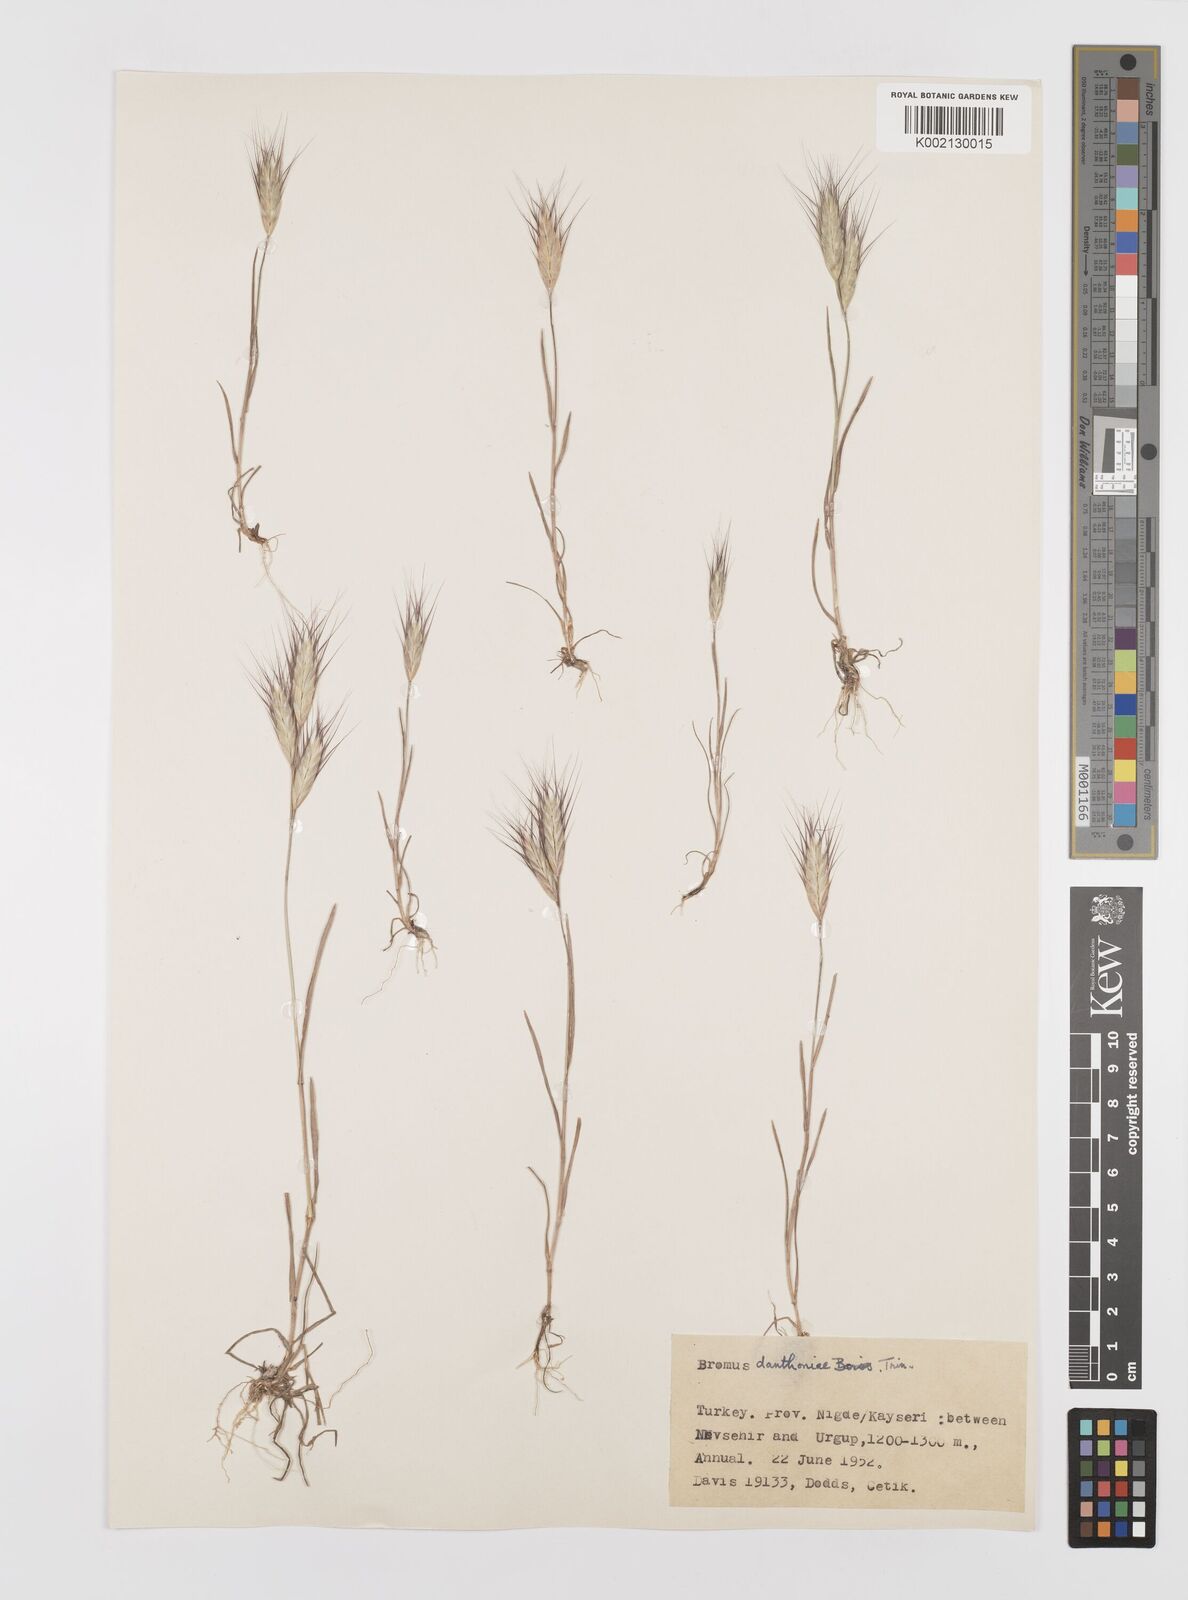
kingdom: Plantae
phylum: Tracheophyta
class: Liliopsida
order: Poales
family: Poaceae
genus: Bromus
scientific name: Bromus danthoniae
